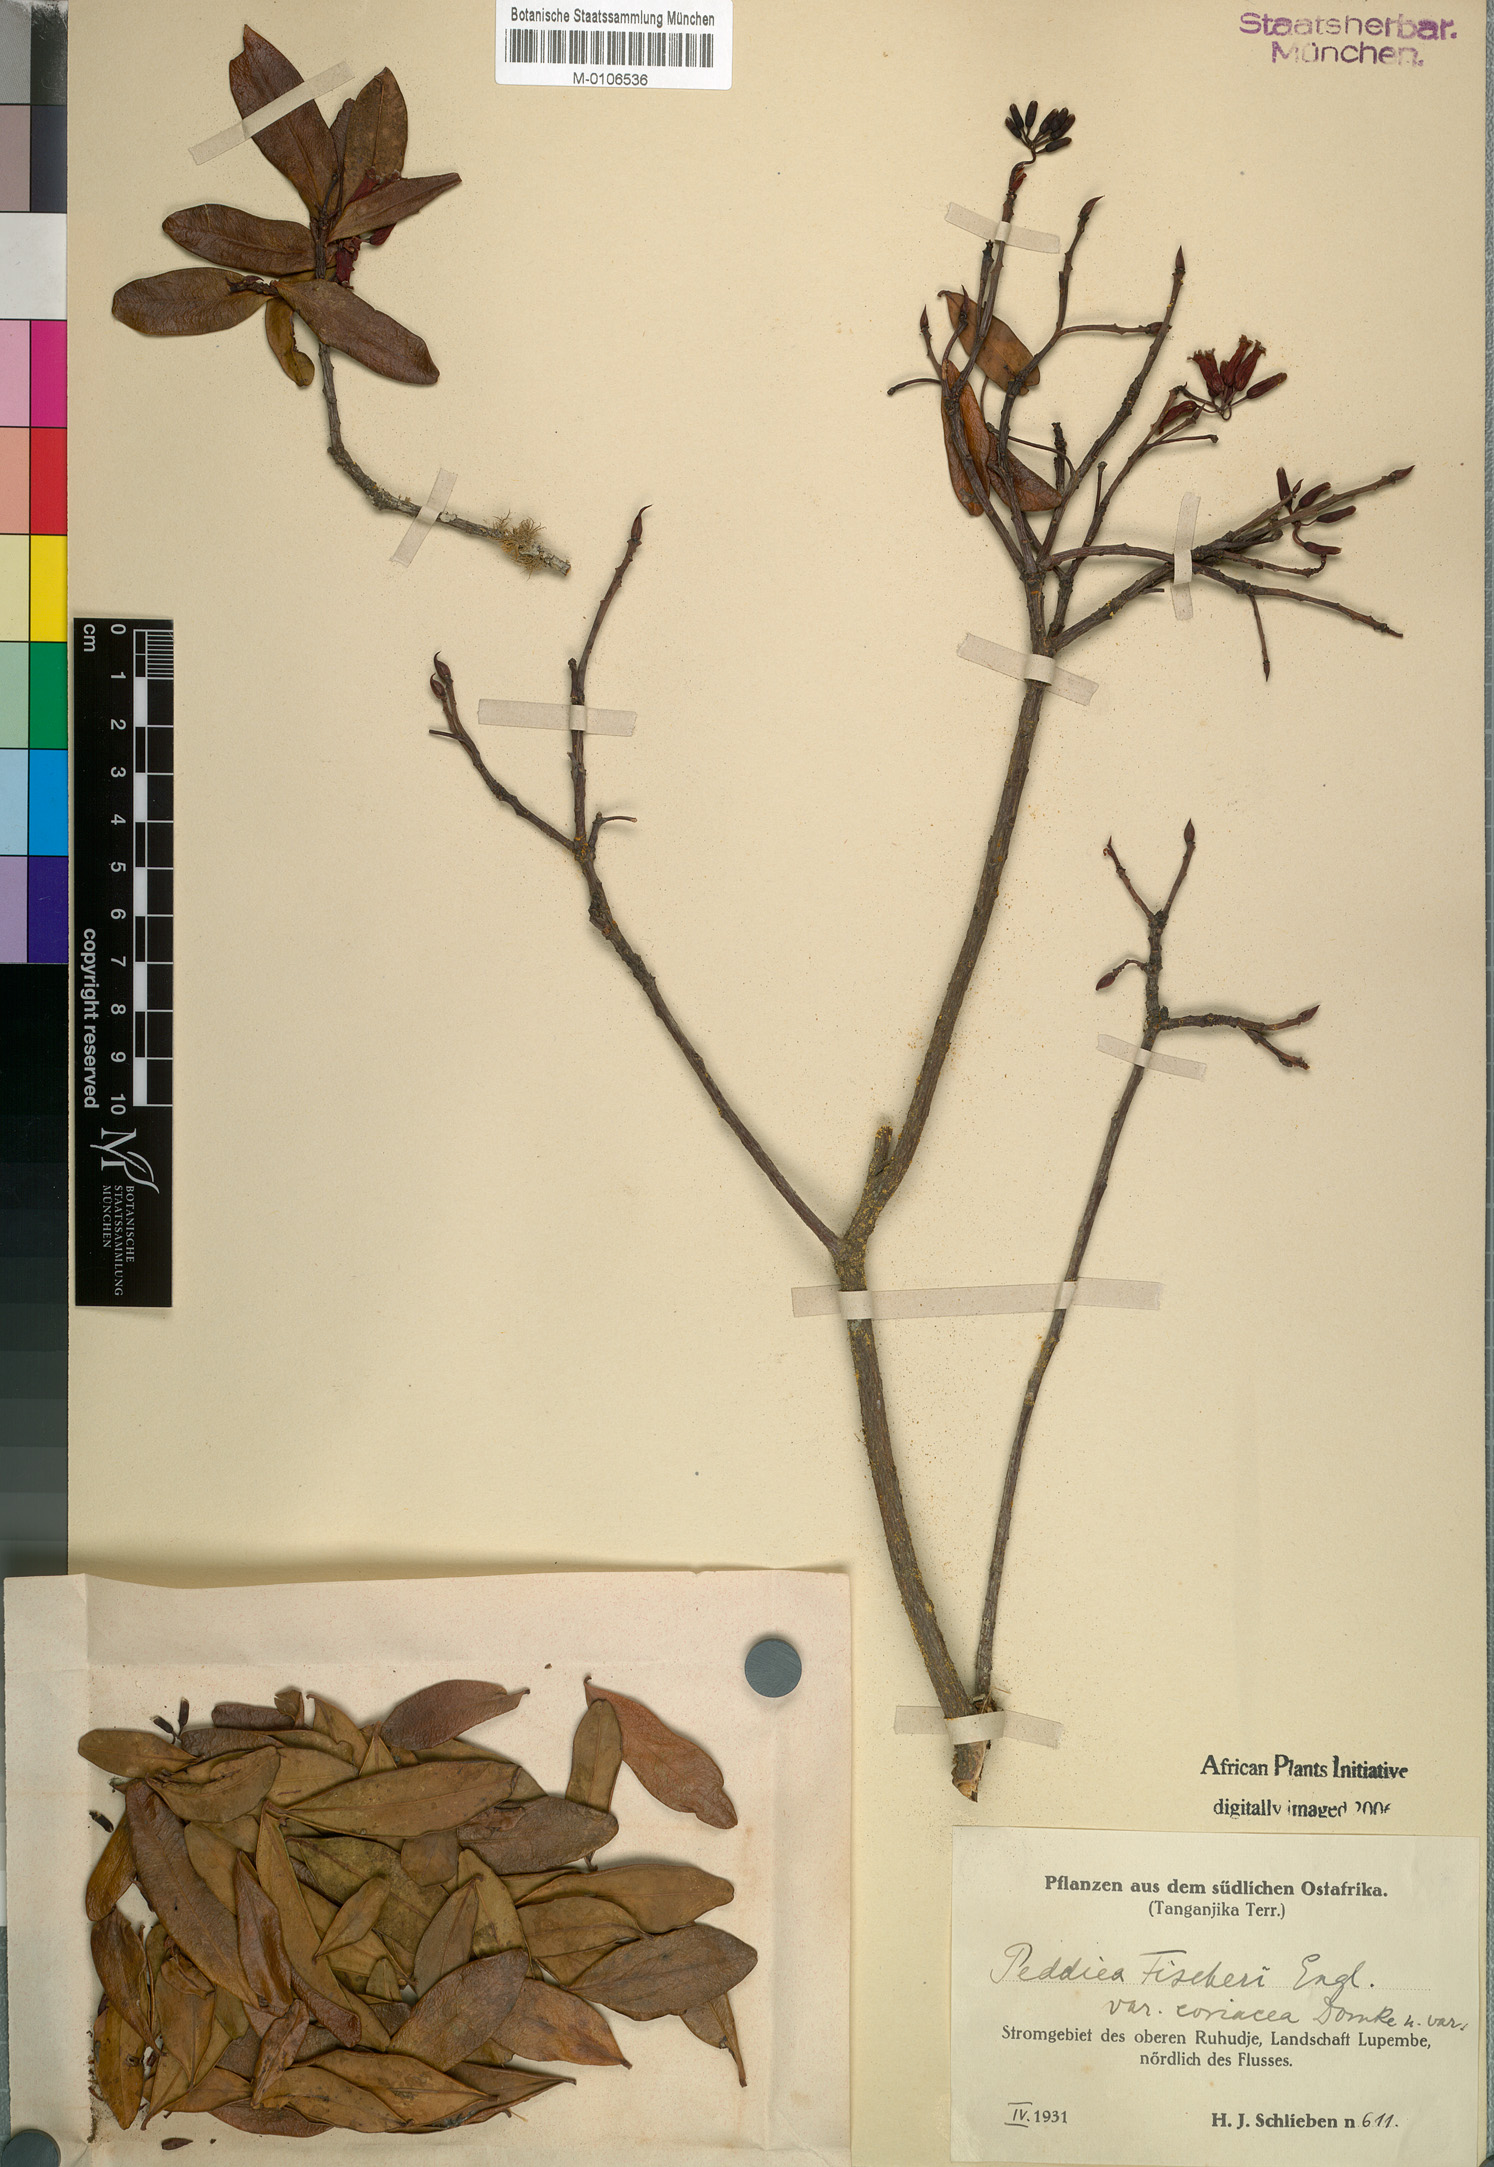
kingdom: Plantae
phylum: Tracheophyta
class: Magnoliopsida
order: Malvales
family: Thymelaeaceae
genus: Peddiea
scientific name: Peddiea fischeri
